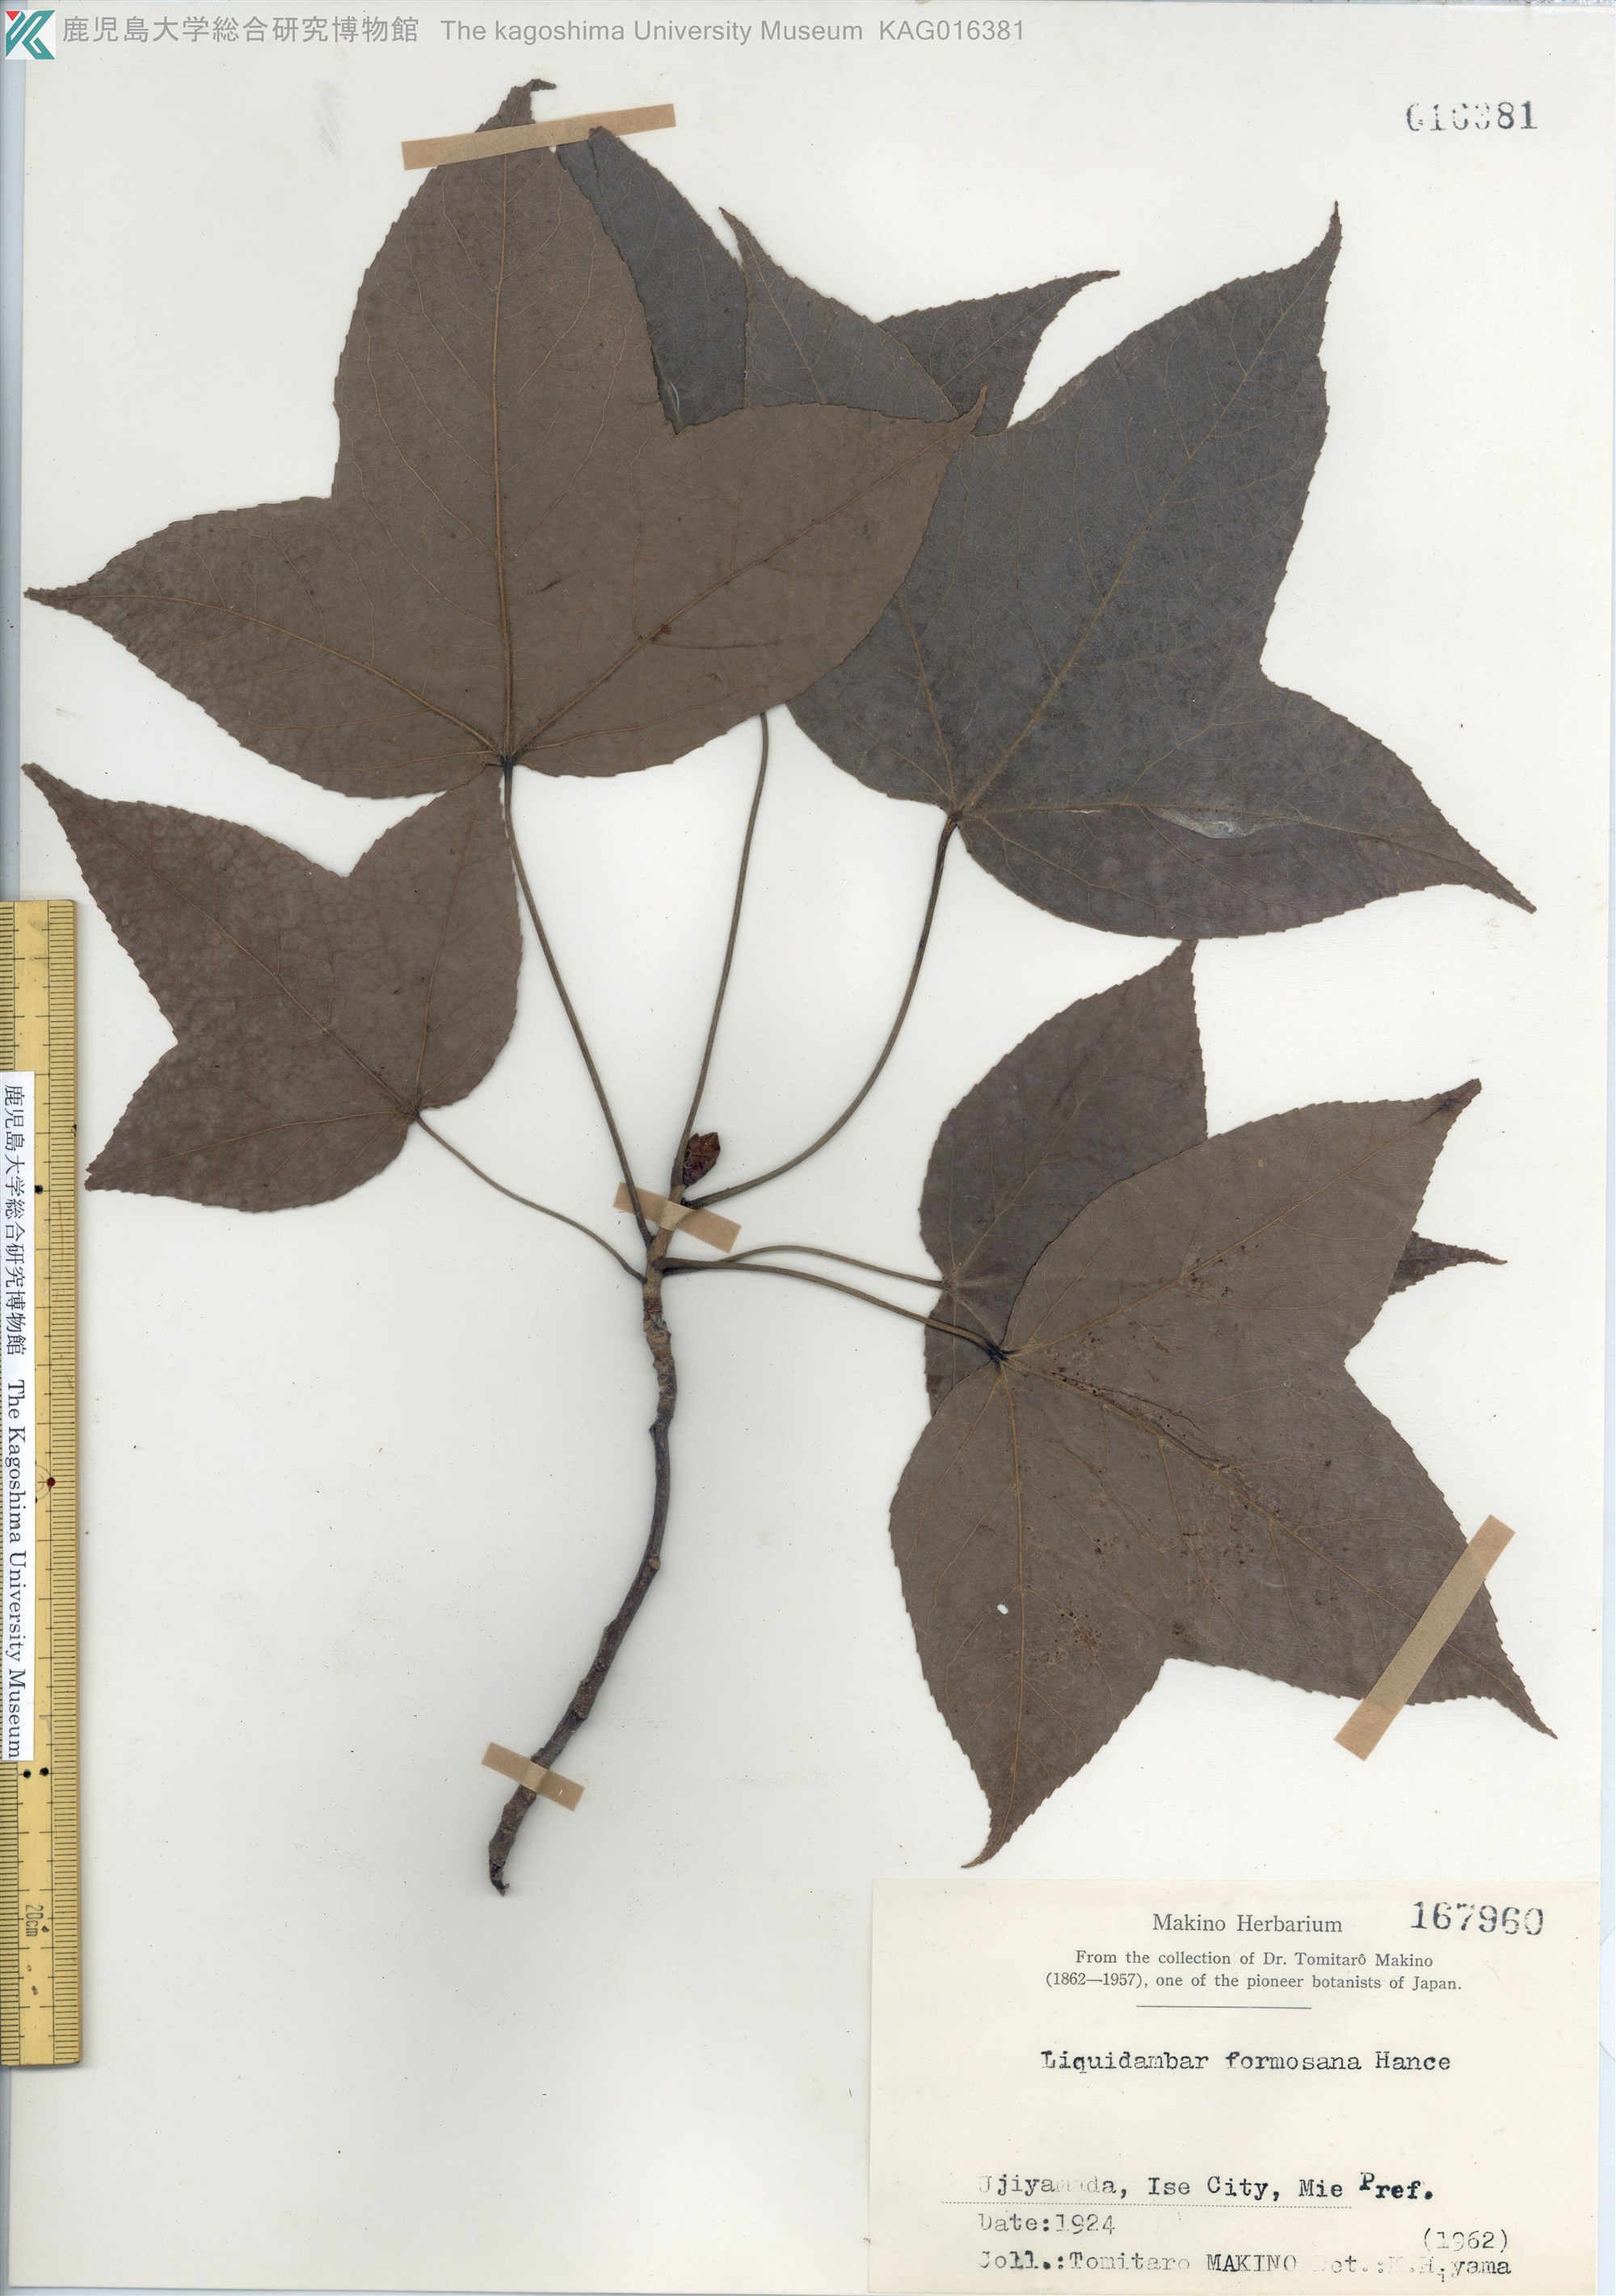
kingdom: Plantae
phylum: Tracheophyta
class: Magnoliopsida
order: Saxifragales
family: Altingiaceae
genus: Liquidambar
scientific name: Liquidambar formosana
